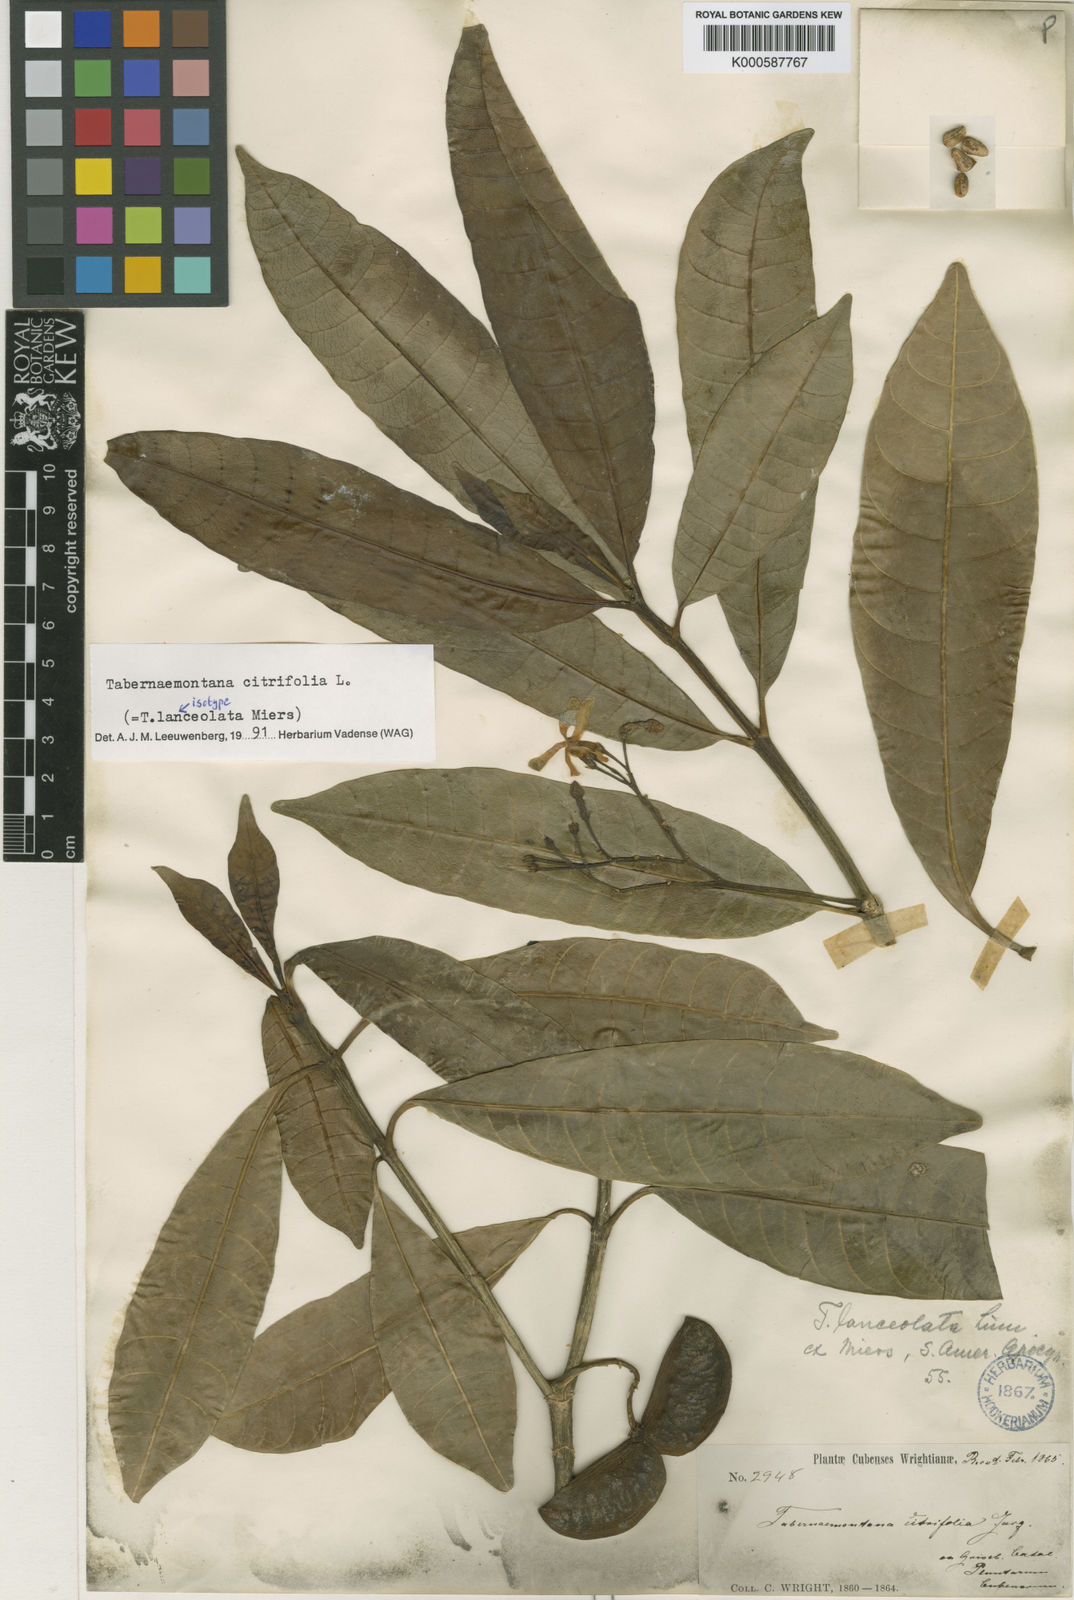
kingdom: Plantae
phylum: Tracheophyta
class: Magnoliopsida
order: Gentianales
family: Apocynaceae
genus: Tabernaemontana
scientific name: Tabernaemontana citrifolia
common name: Milky tree
